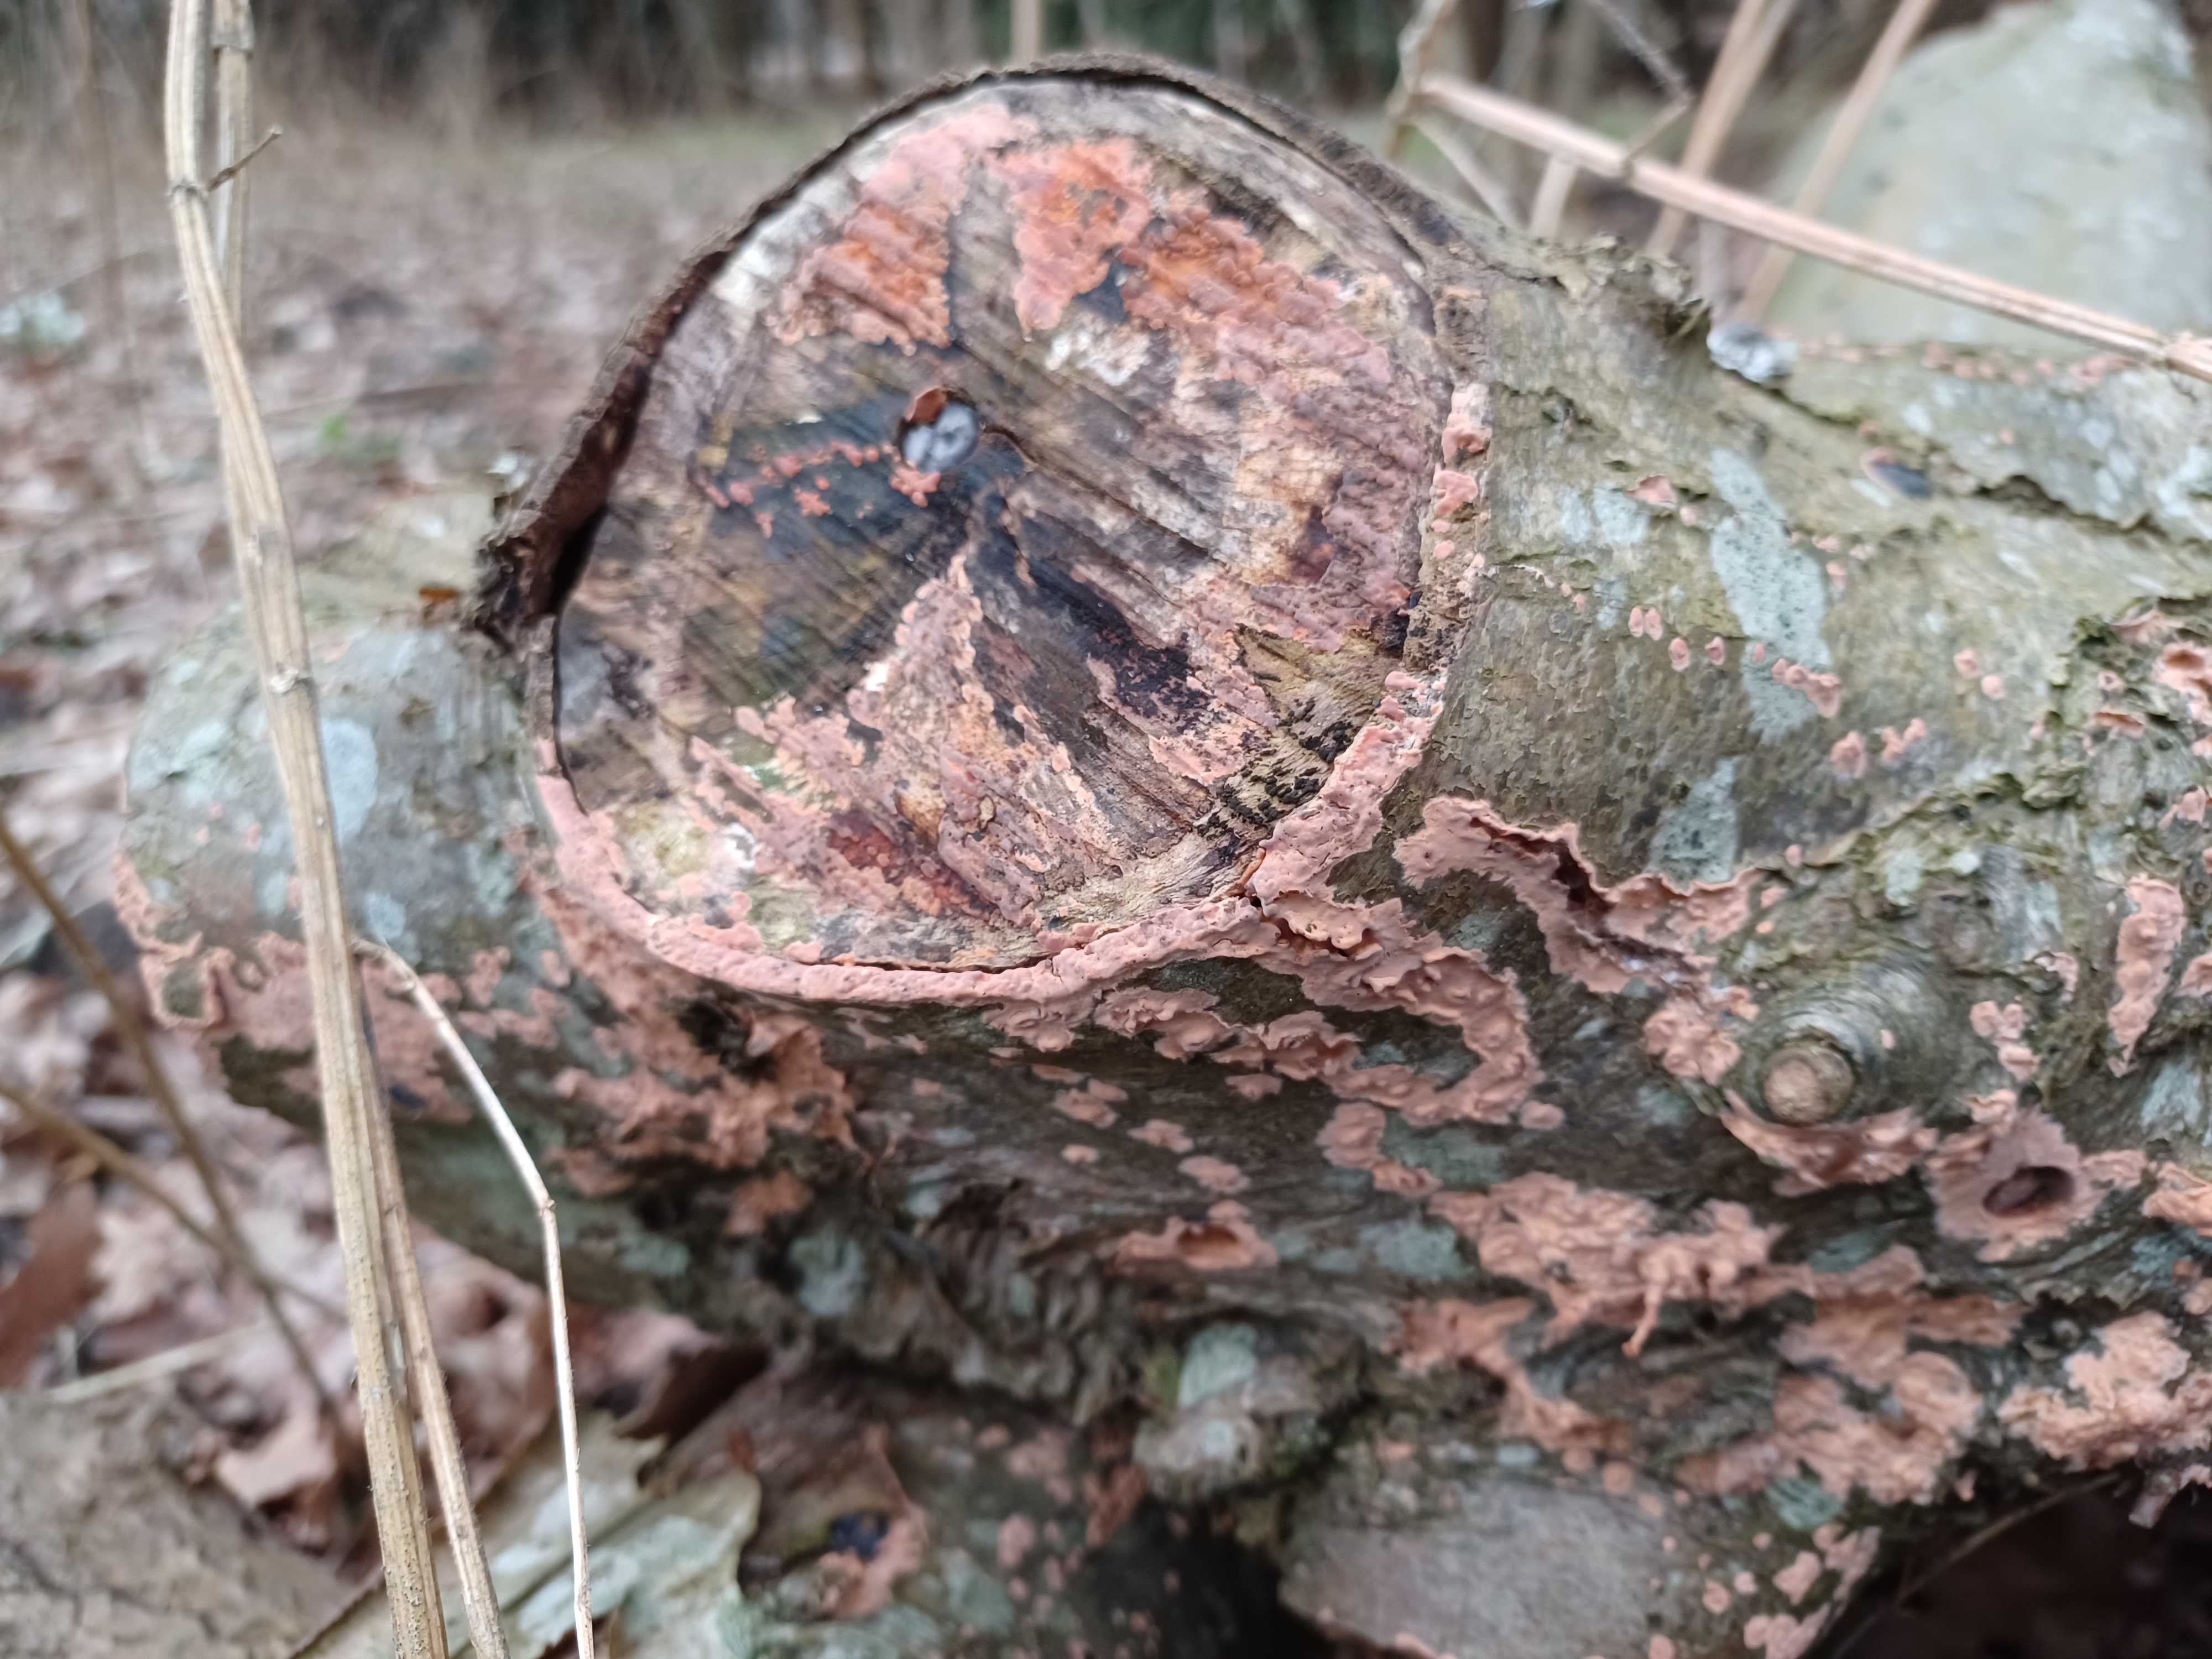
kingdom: Fungi
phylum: Basidiomycota
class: Agaricomycetes
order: Russulales
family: Peniophoraceae
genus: Peniophora
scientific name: Peniophora incarnata
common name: laksefarvet voksskind
